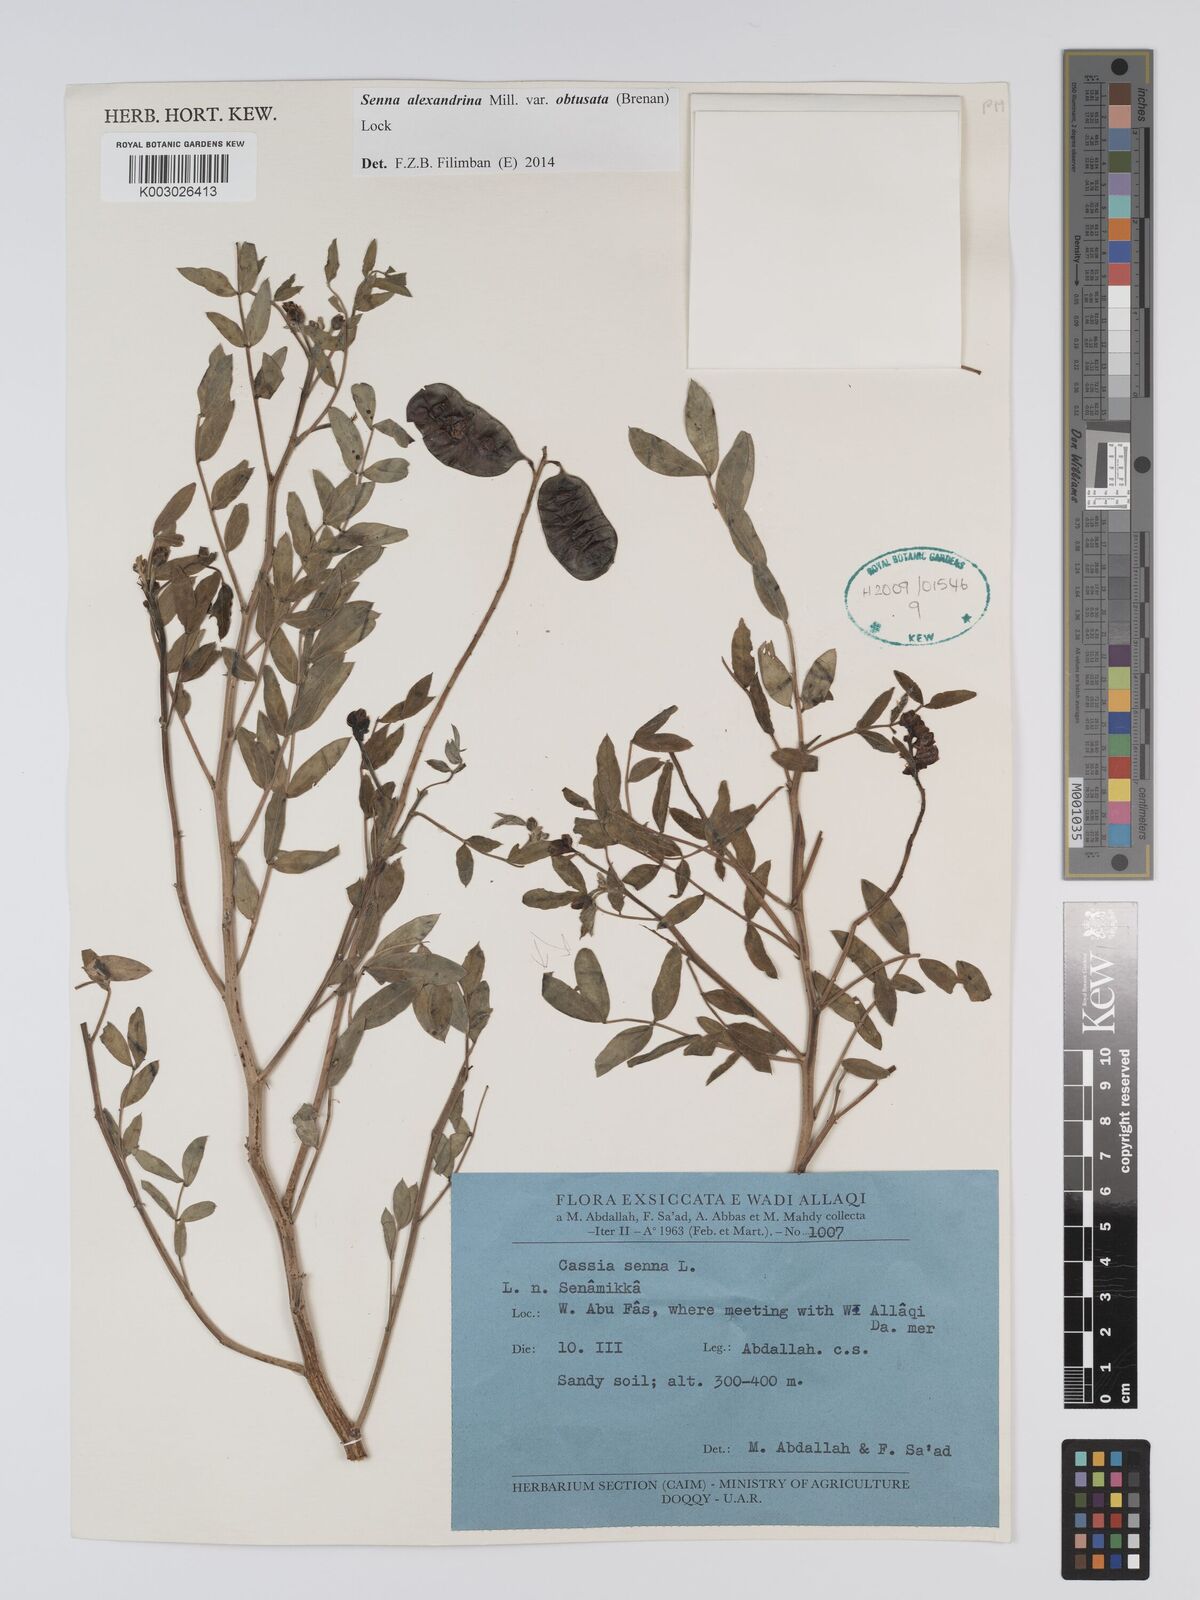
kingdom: Plantae
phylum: Tracheophyta
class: Magnoliopsida
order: Fabales
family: Fabaceae
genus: Senna
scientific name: Senna alexandrina
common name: True senna
